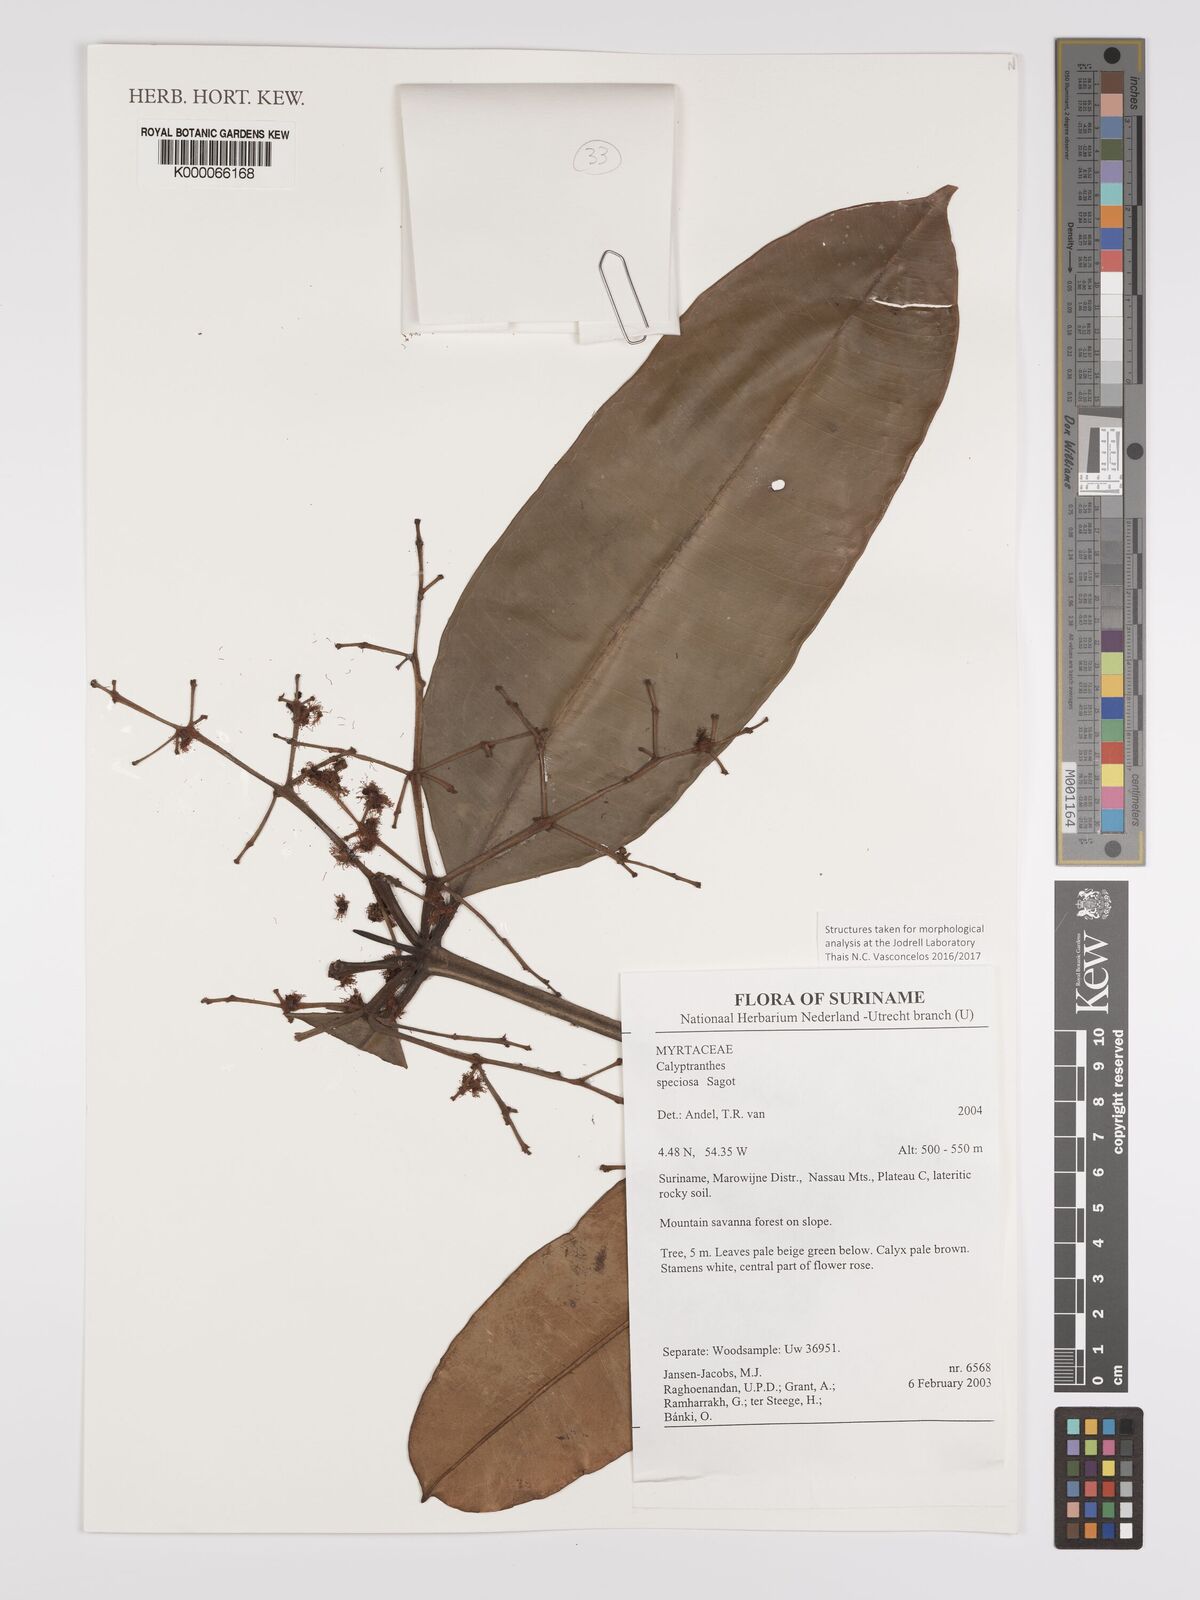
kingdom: Plantae
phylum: Tracheophyta
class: Magnoliopsida
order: Myrtales
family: Myrtaceae
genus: Myrcia
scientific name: Myrcia neospeciosa
